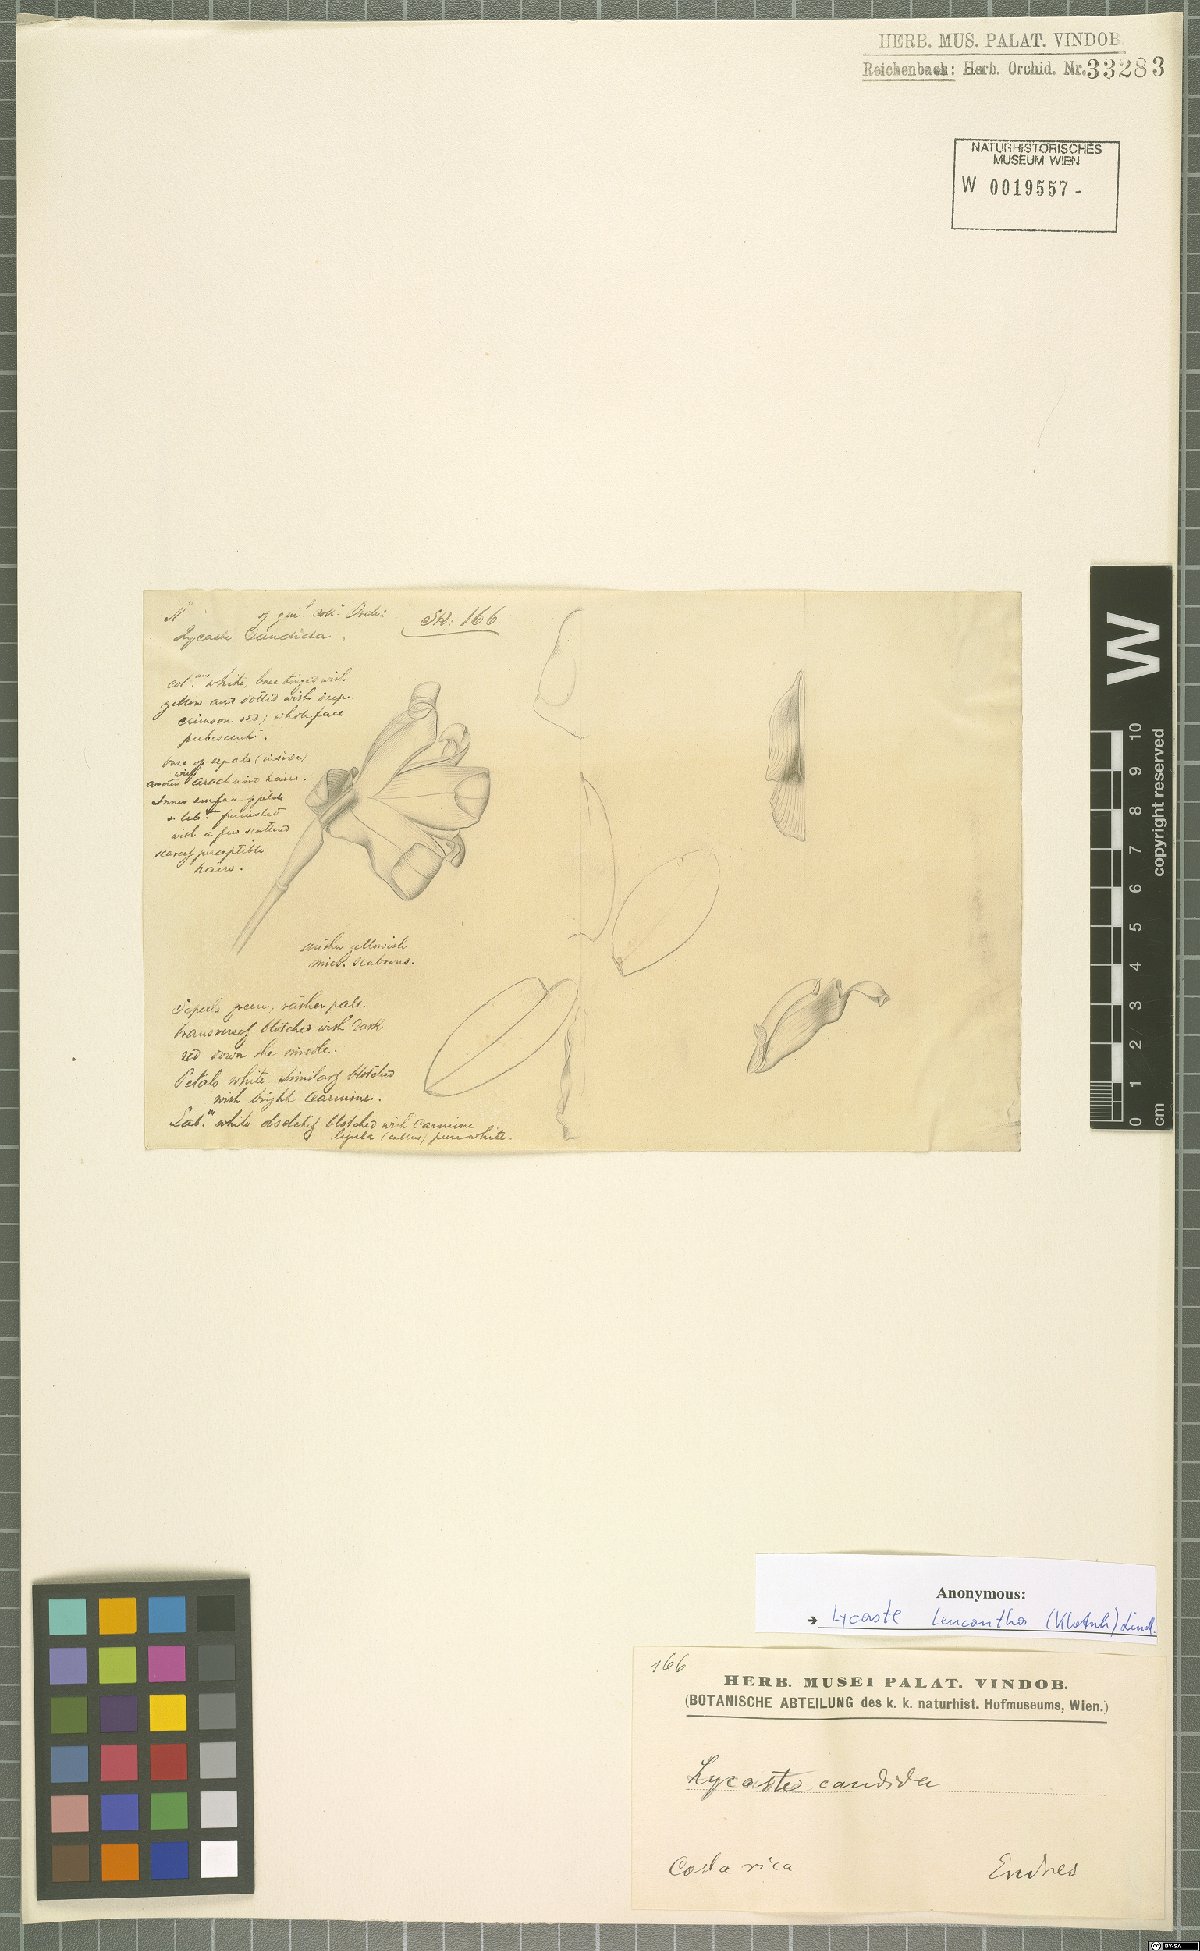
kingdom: Plantae
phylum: Tracheophyta
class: Liliopsida
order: Asparagales
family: Orchidaceae
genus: Lycaste
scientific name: Lycaste leucantha
